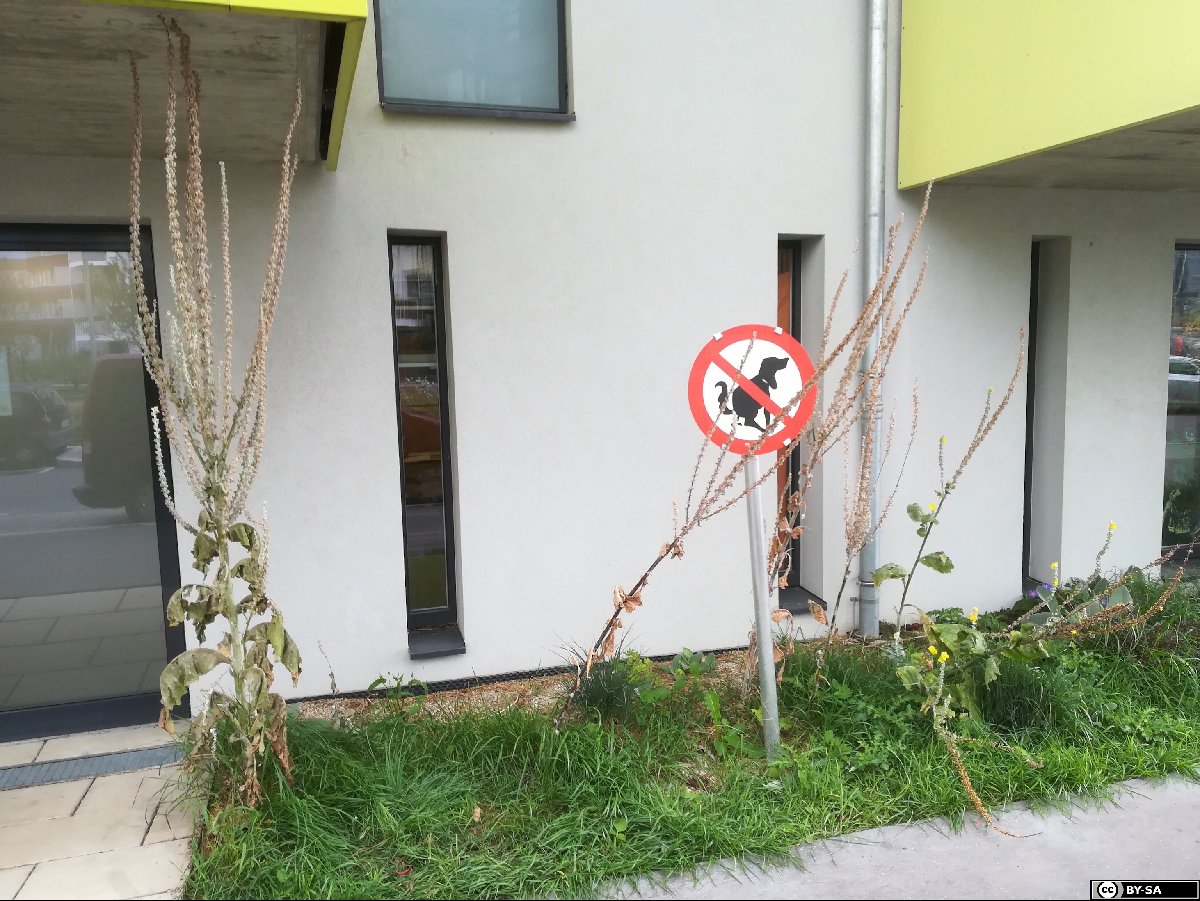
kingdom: Plantae
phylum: Tracheophyta
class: Magnoliopsida
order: Lamiales
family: Scrophulariaceae
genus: Verbascum
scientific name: Verbascum bombyciferum
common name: Broussa mullein
